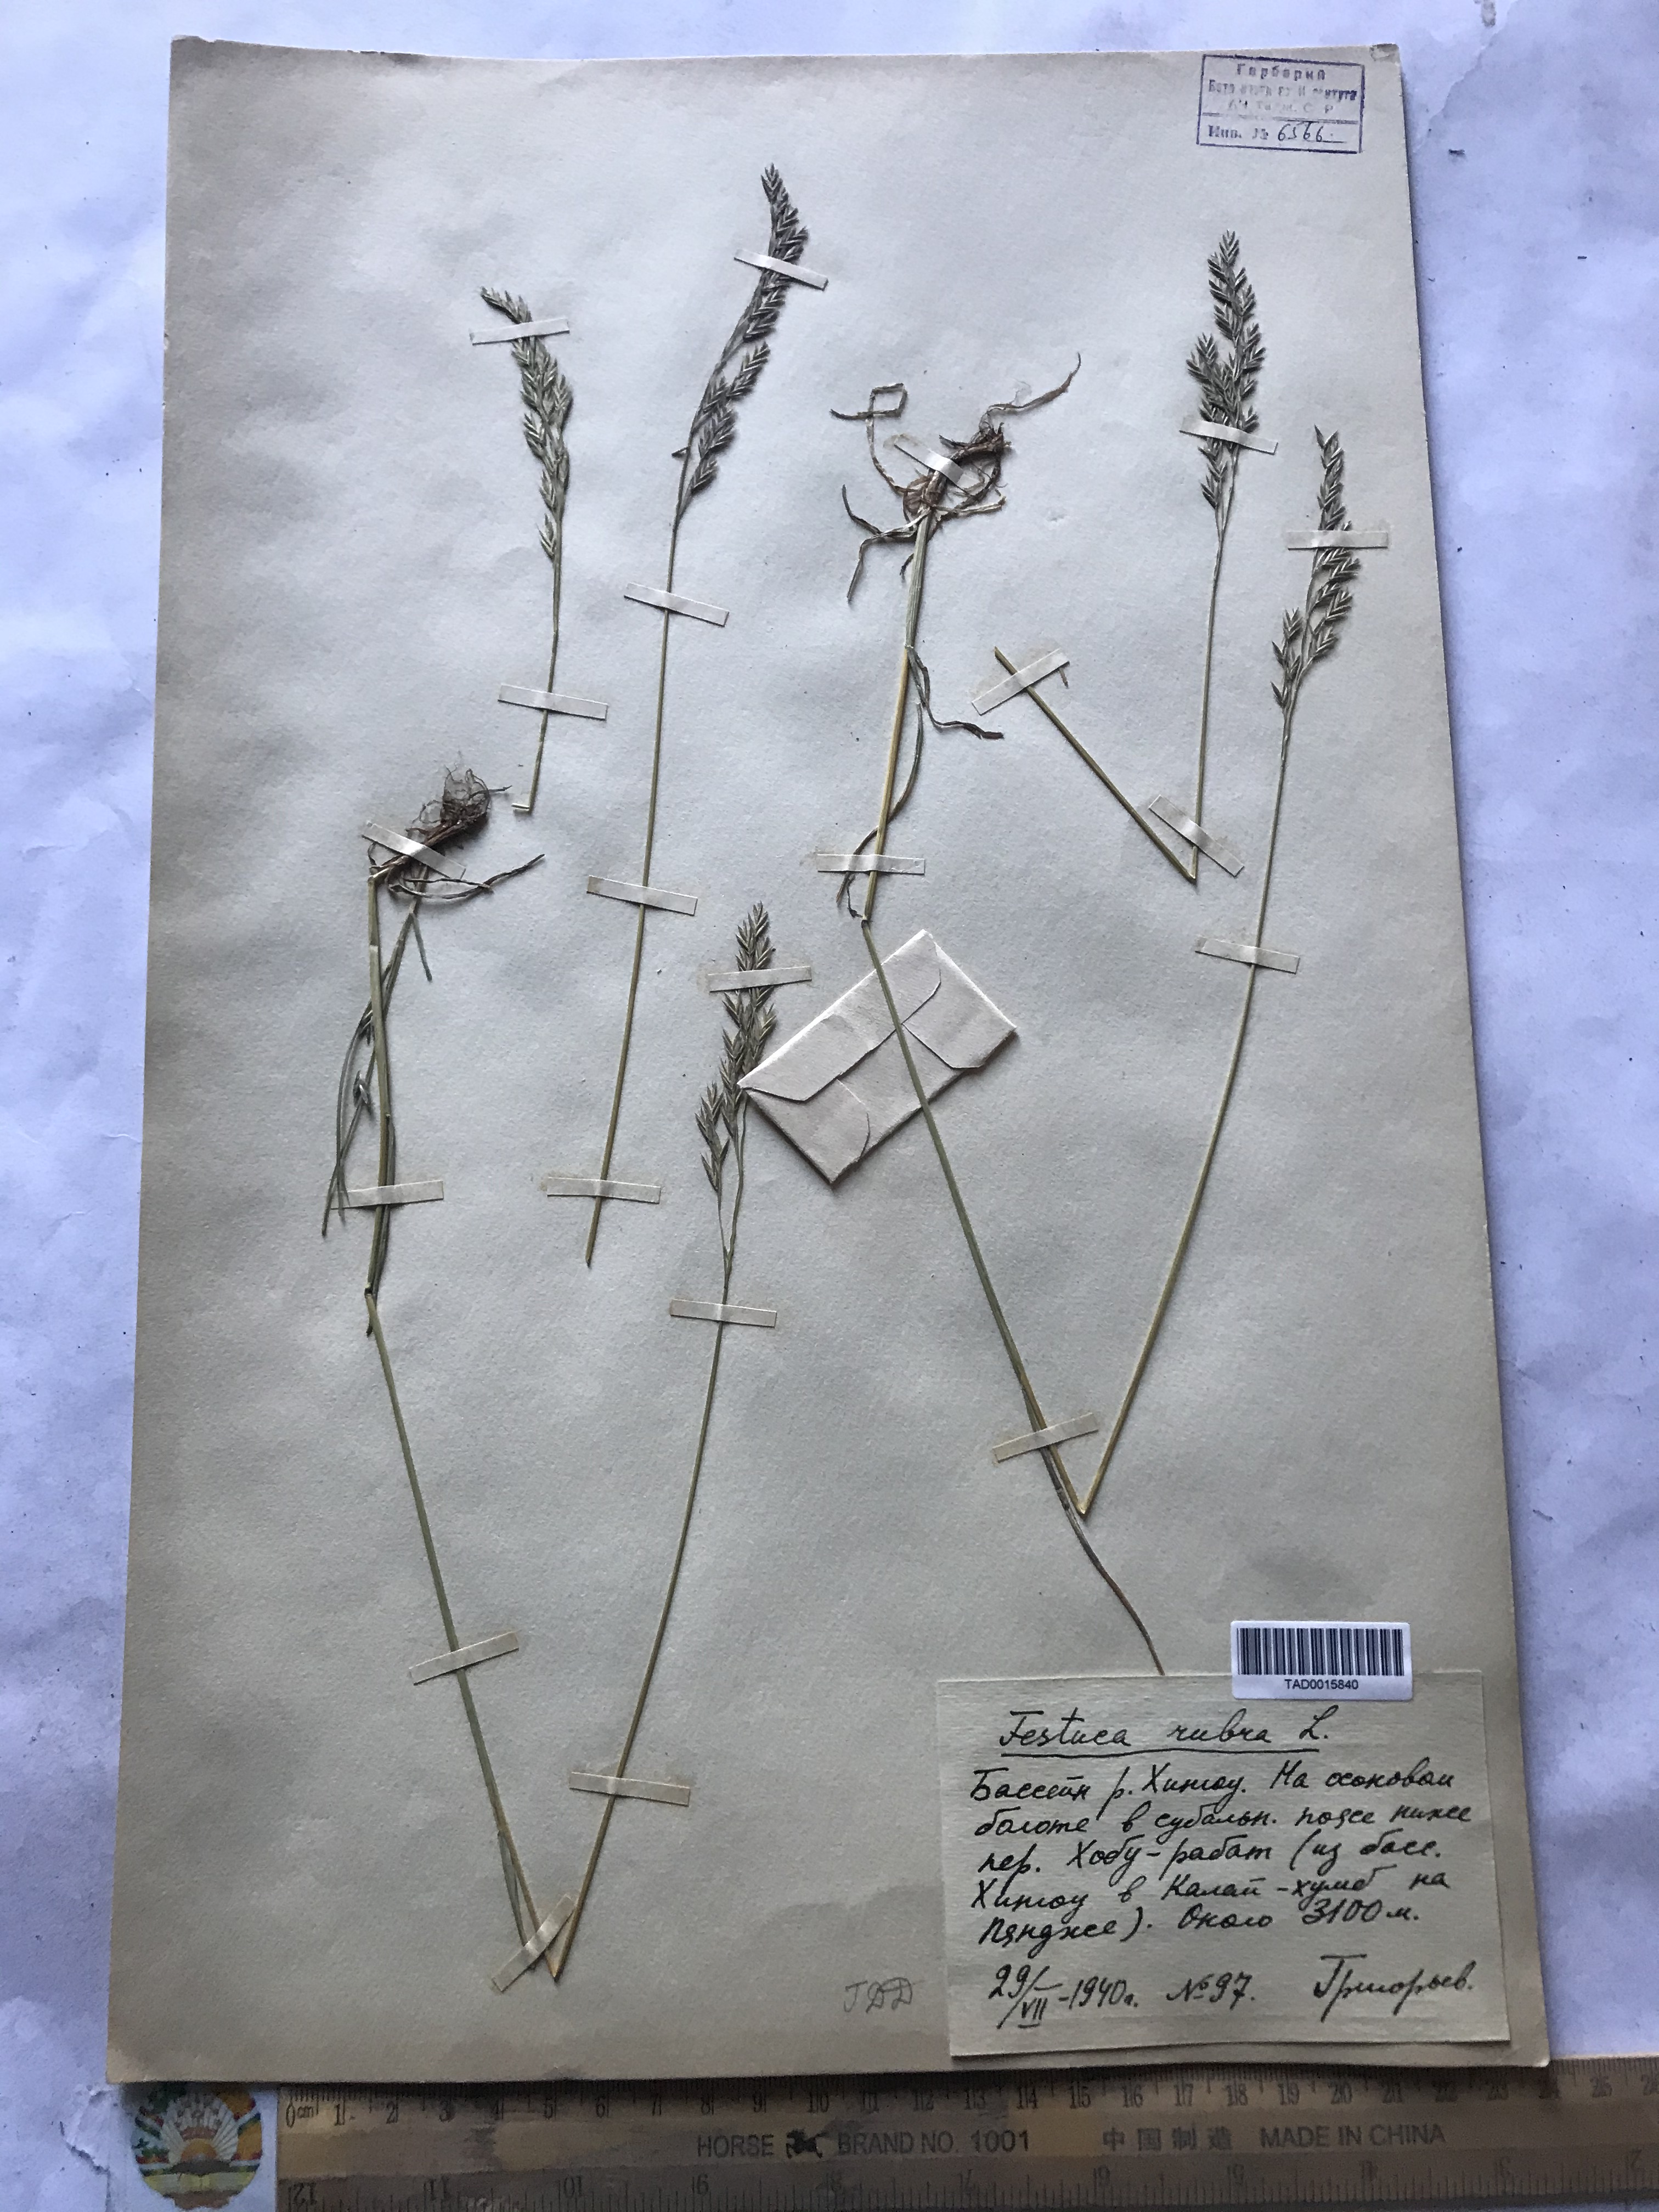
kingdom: Plantae
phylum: Tracheophyta
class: Liliopsida
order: Poales
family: Poaceae
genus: Festuca
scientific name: Festuca rubra
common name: Red fescue
